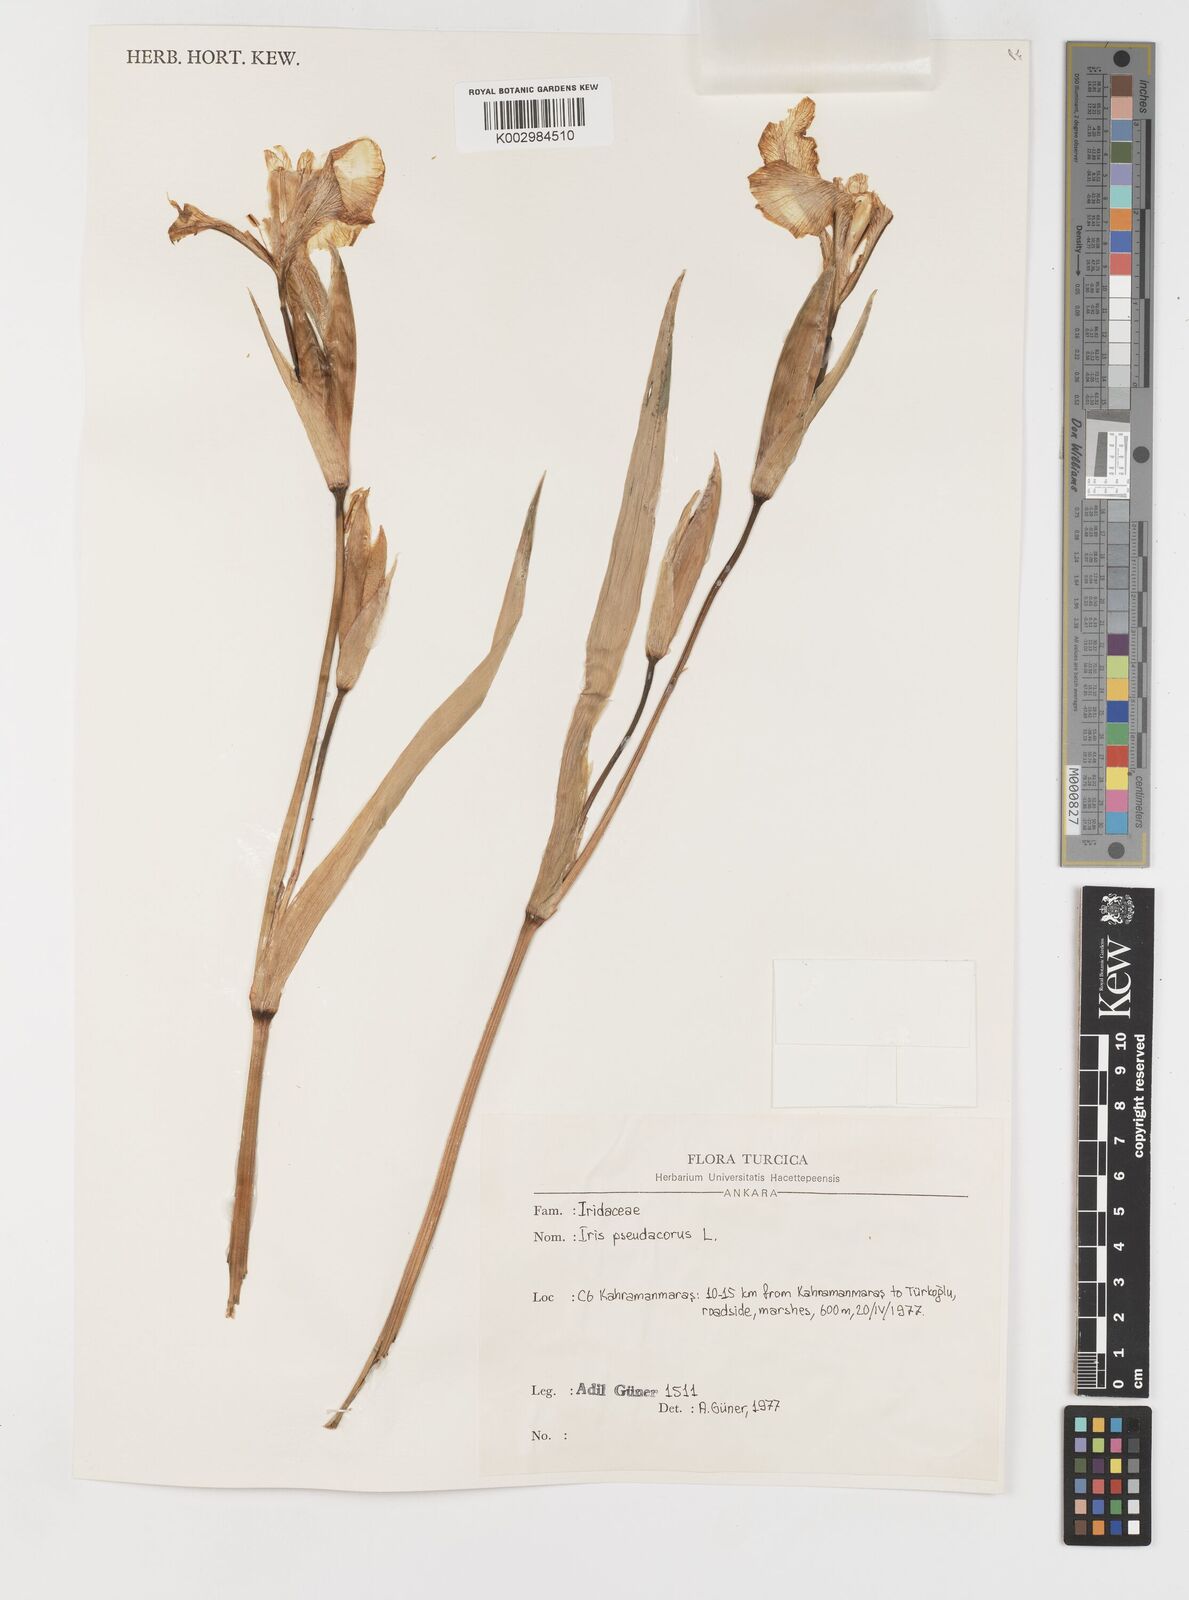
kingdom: Plantae
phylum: Tracheophyta
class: Liliopsida
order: Asparagales
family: Iridaceae
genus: Iris
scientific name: Iris pseudacorus
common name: Yellow flag
